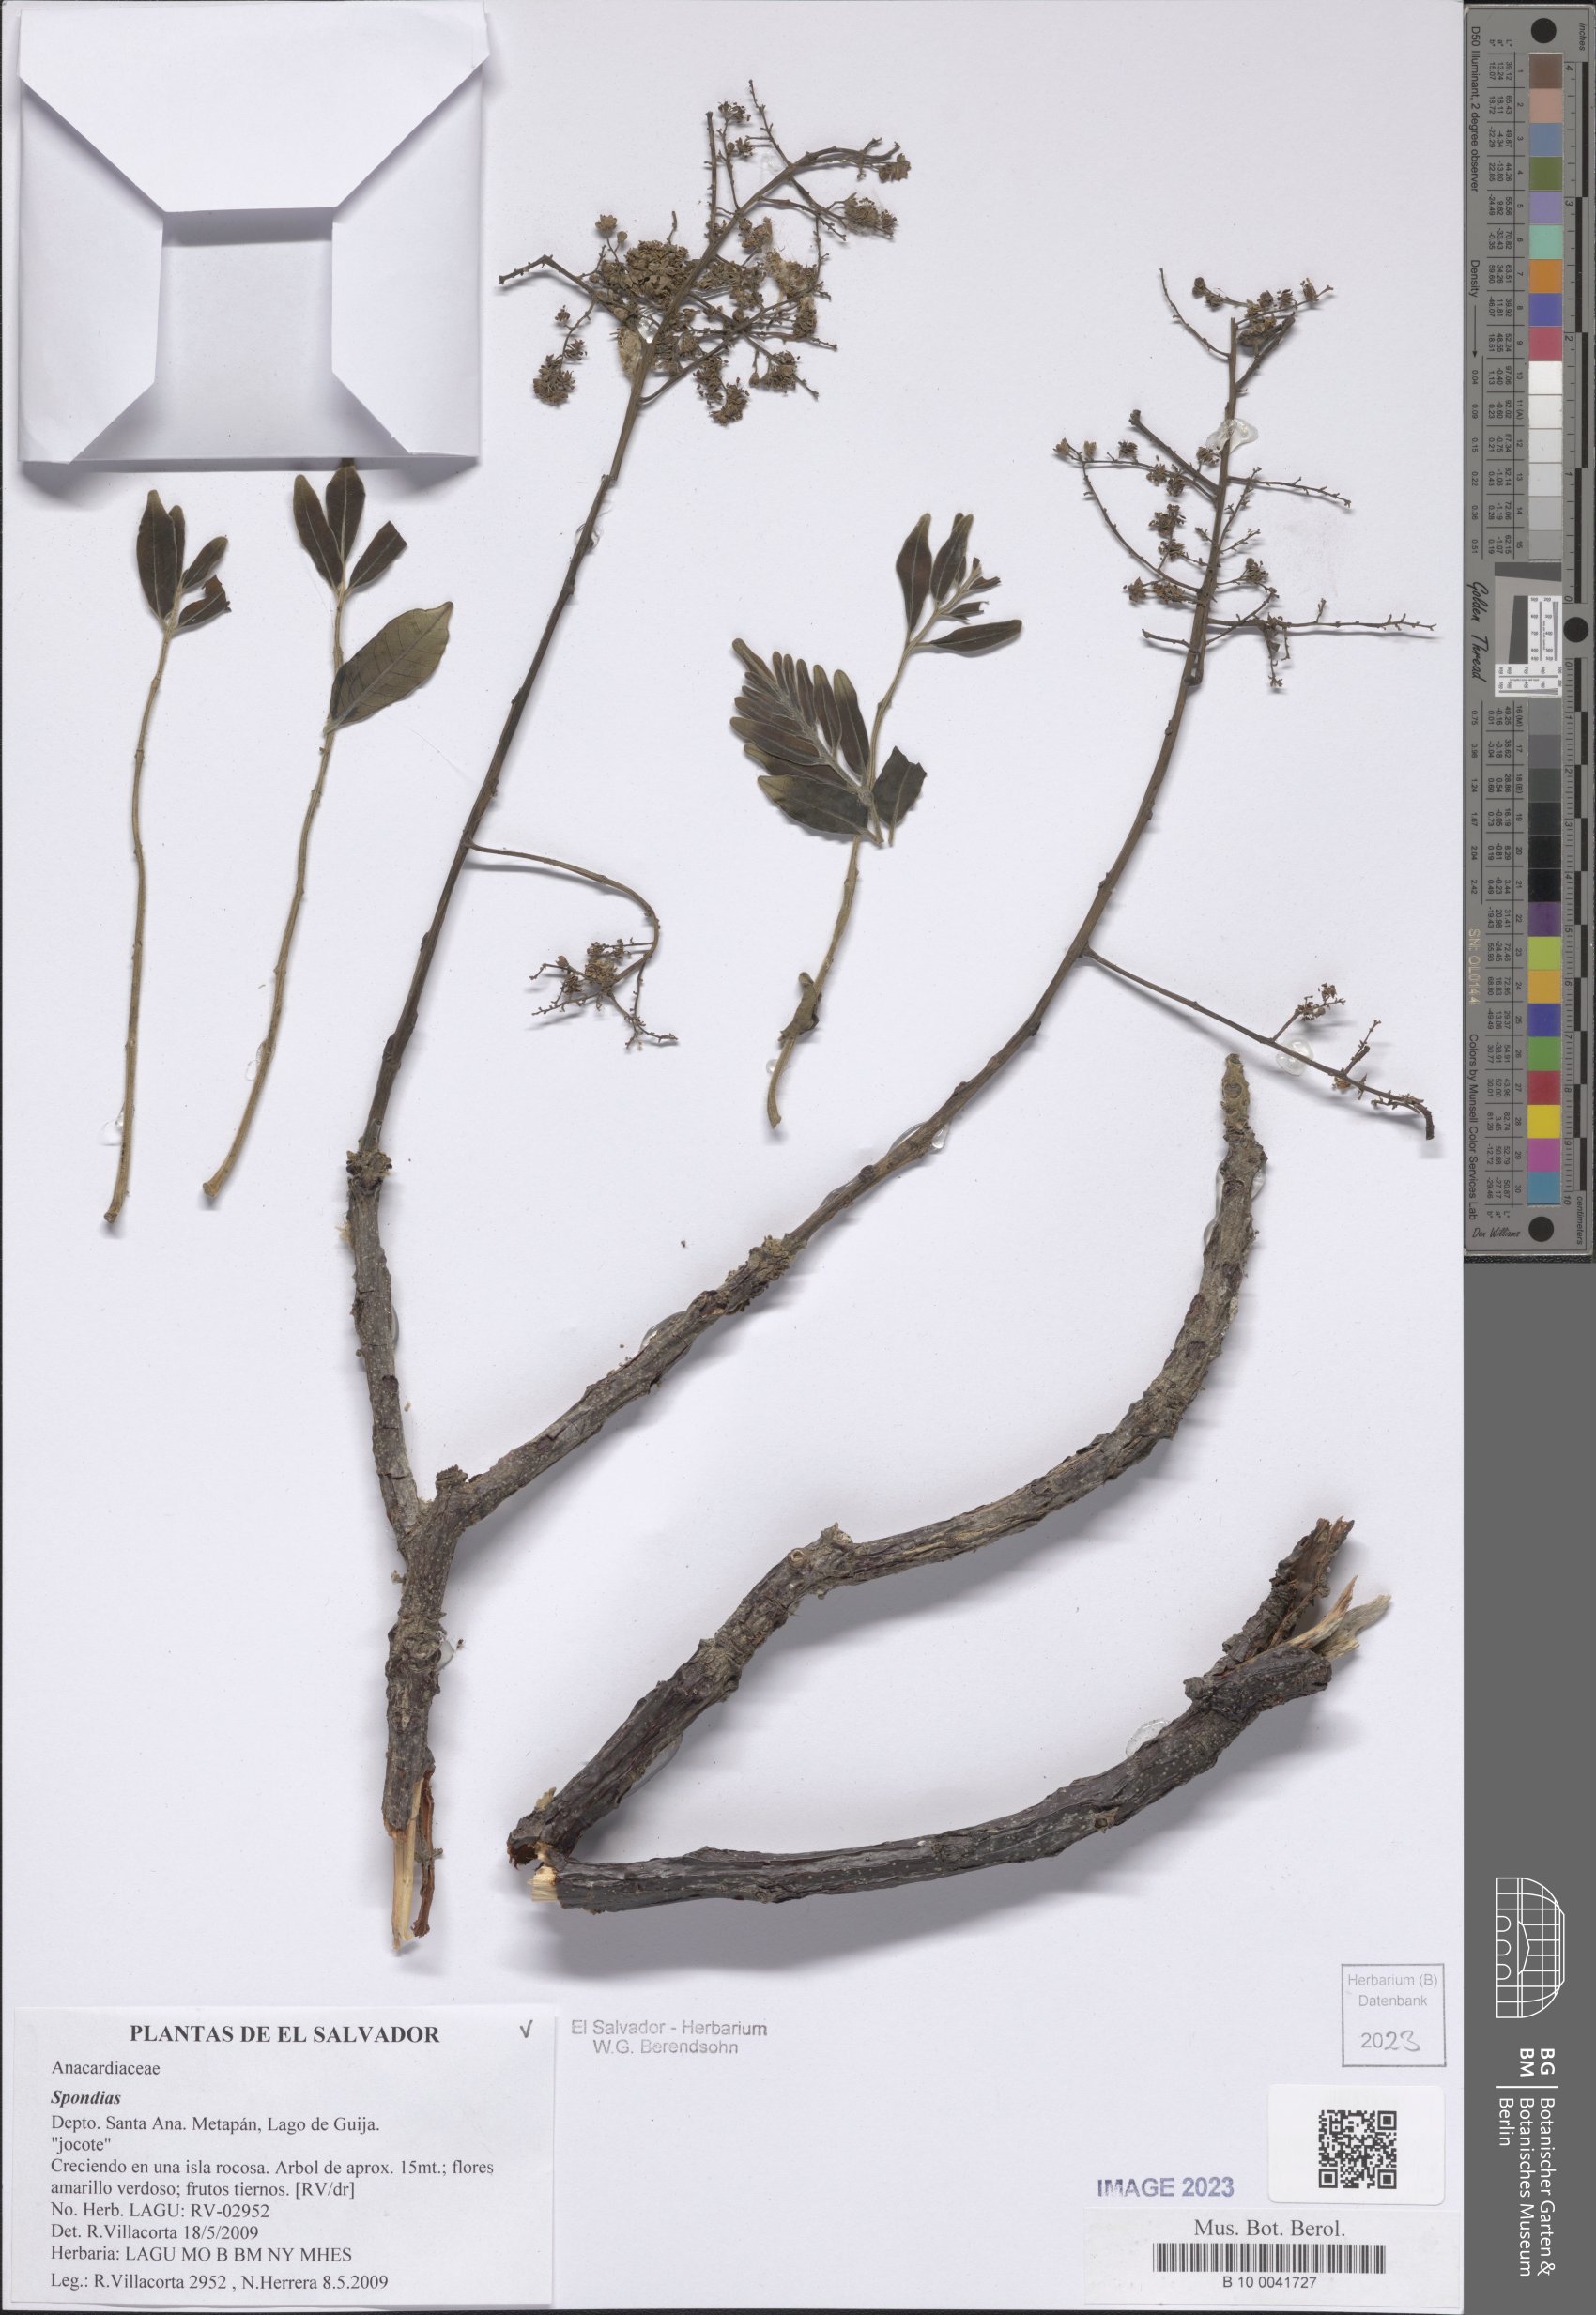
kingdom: Plantae
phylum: Tracheophyta
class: Magnoliopsida
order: Sapindales
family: Anacardiaceae
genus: Spondias
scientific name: Spondias
